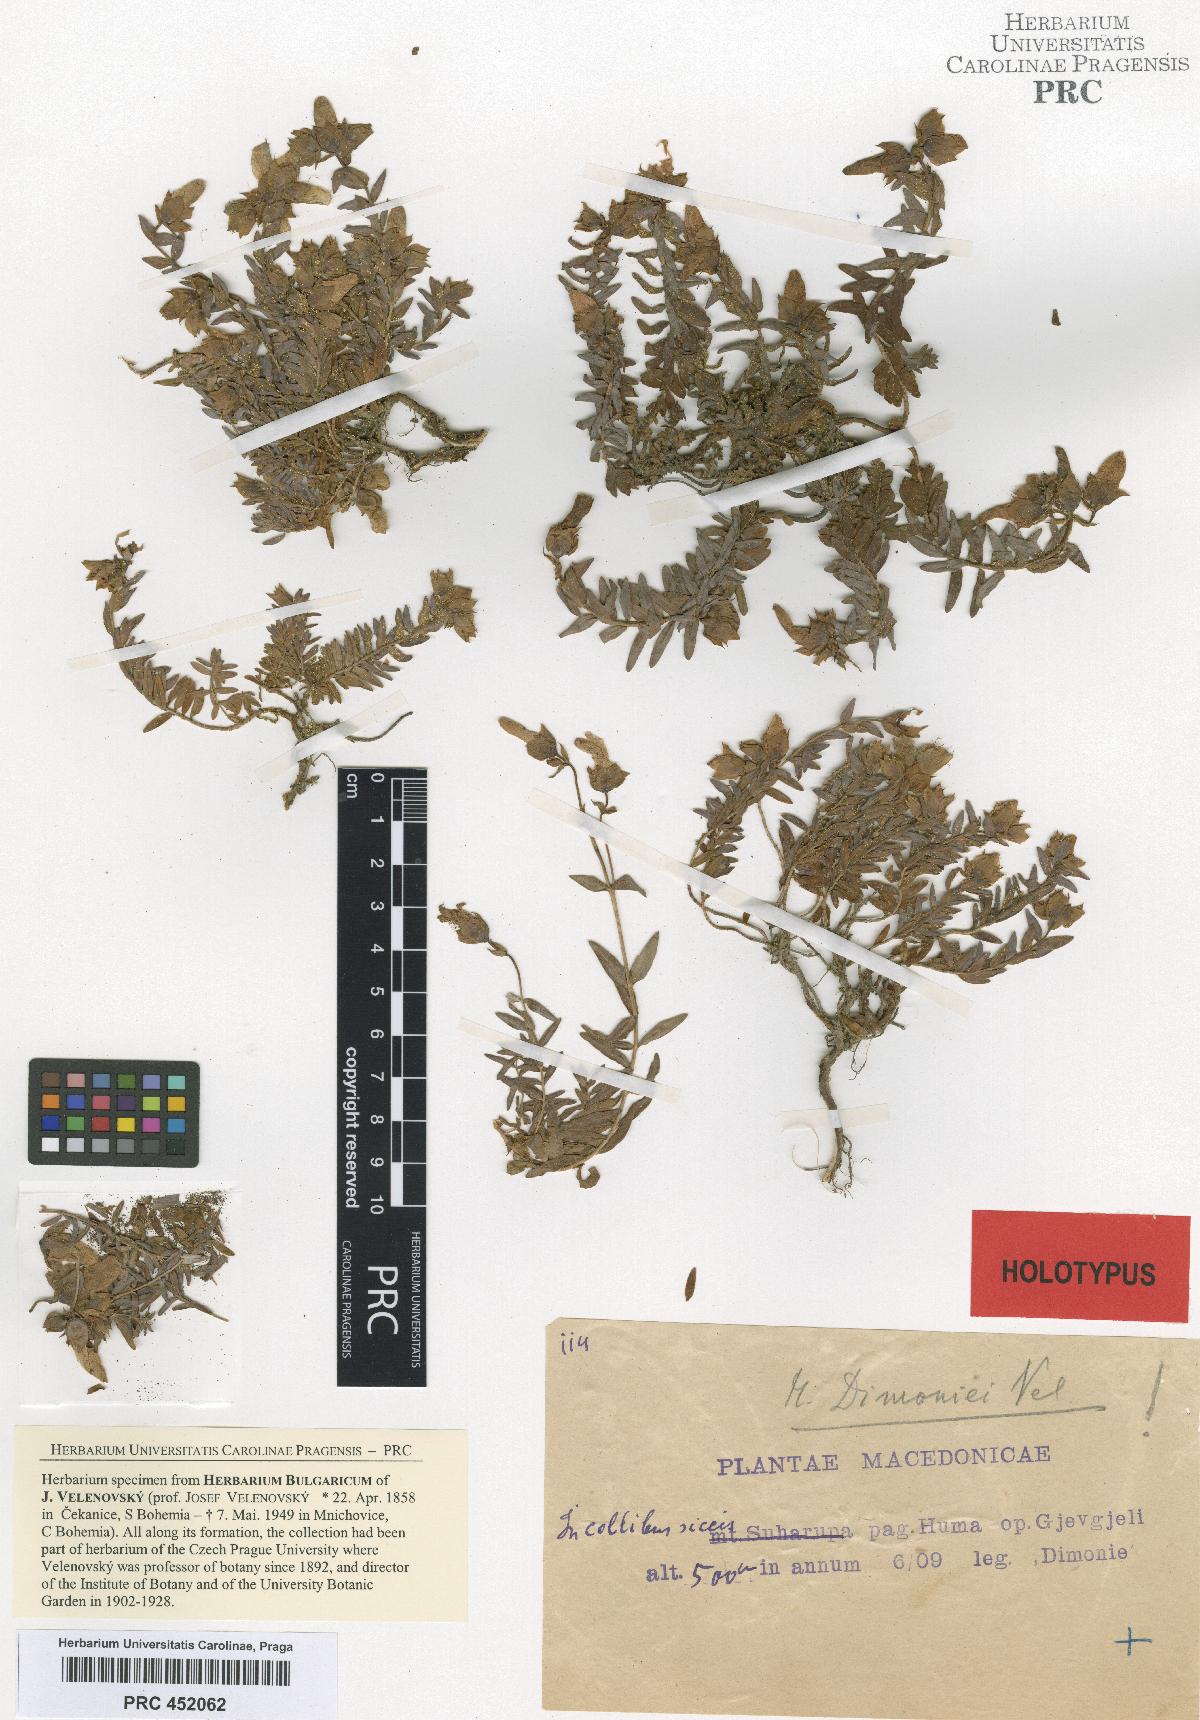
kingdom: Plantae
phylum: Tracheophyta
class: Magnoliopsida
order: Malpighiales
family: Hypericaceae
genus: Hypericum
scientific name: Hypericum olympicum
